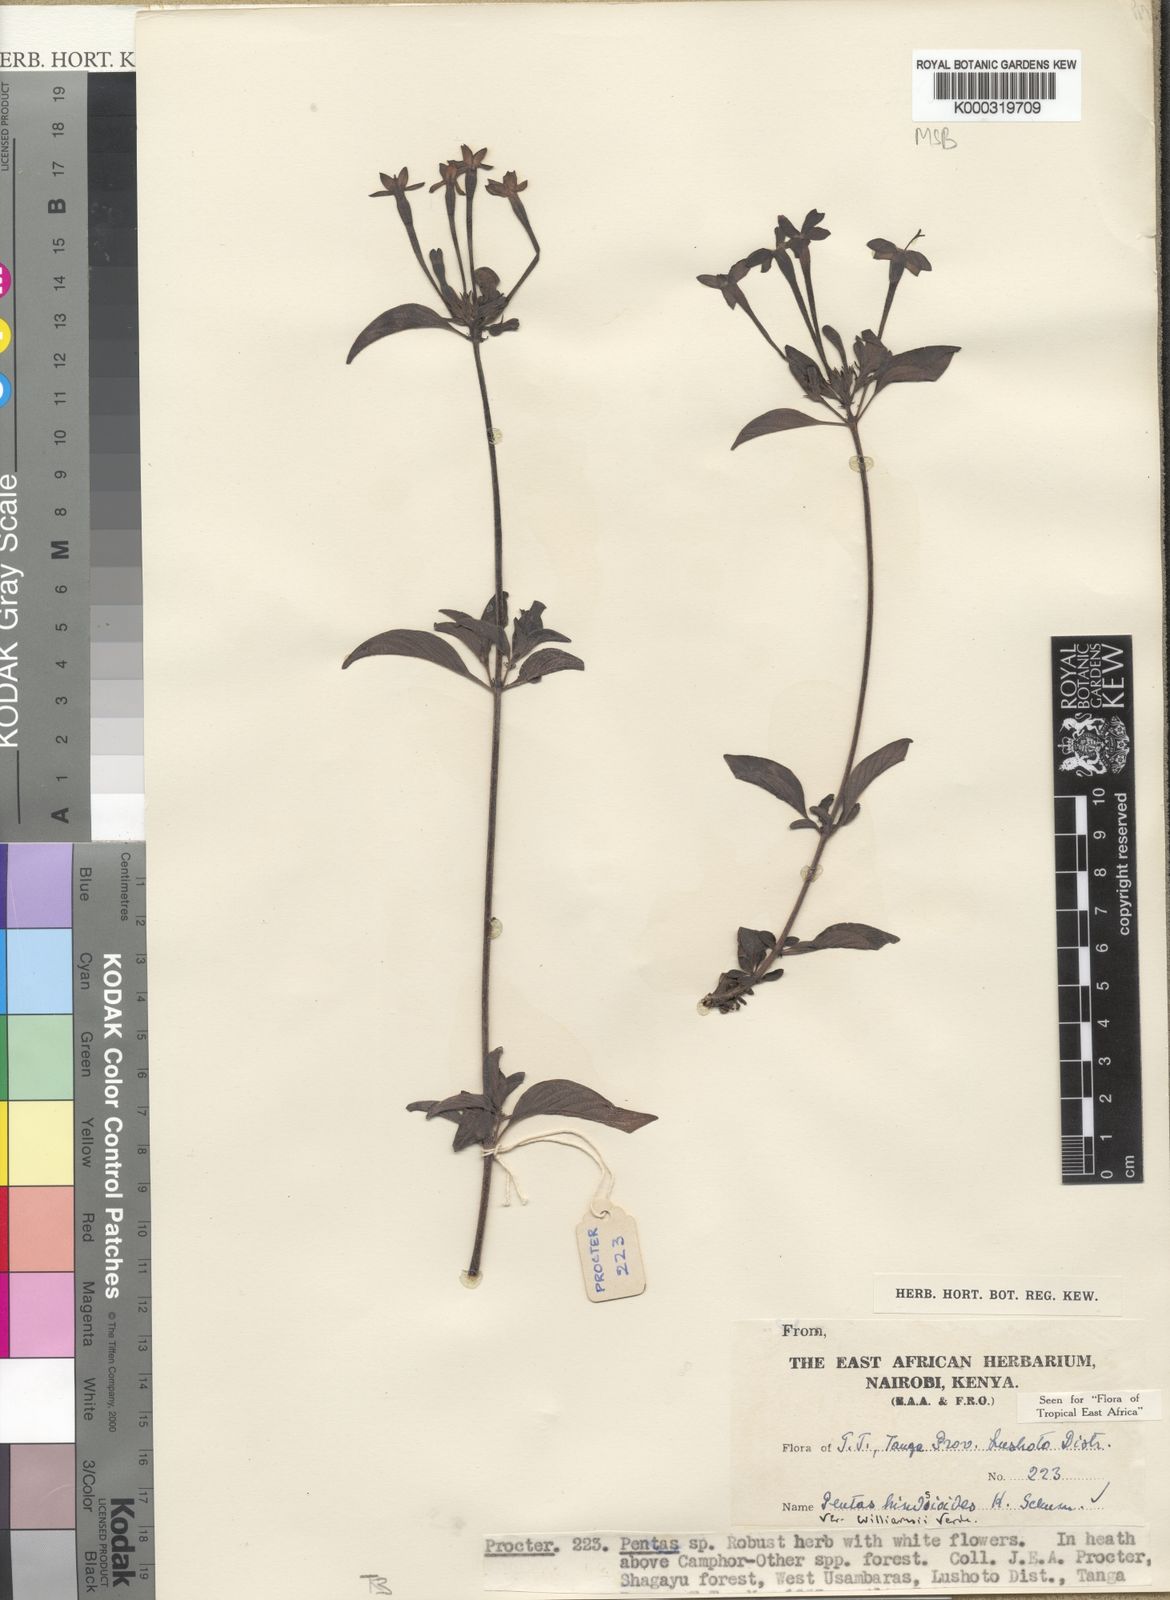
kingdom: Plantae
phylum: Tracheophyta
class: Magnoliopsida
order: Gentianales
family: Rubiaceae
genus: Chamaepentas
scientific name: Chamaepentas hindsioides
